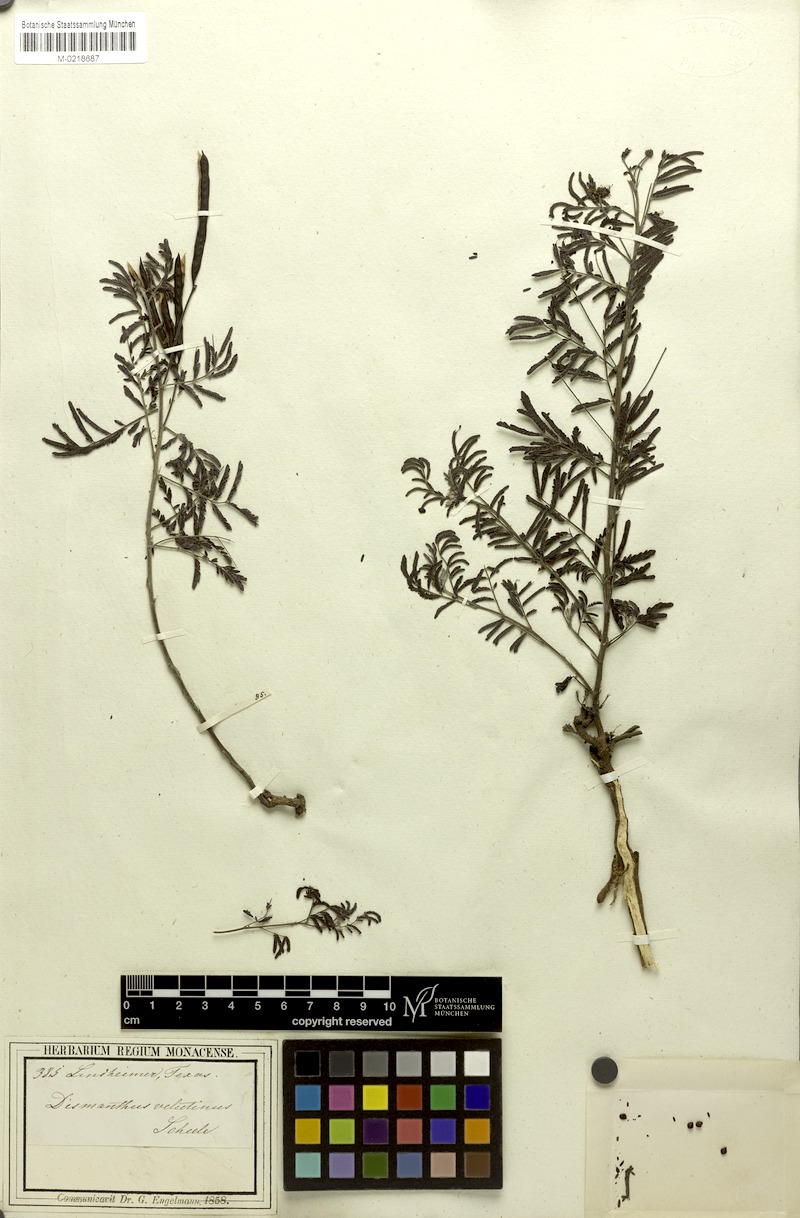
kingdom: Plantae
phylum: Tracheophyta
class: Magnoliopsida
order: Fabales
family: Fabaceae
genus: Desmanthus
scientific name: Desmanthus velutinus
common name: Velvet bundle-flower
